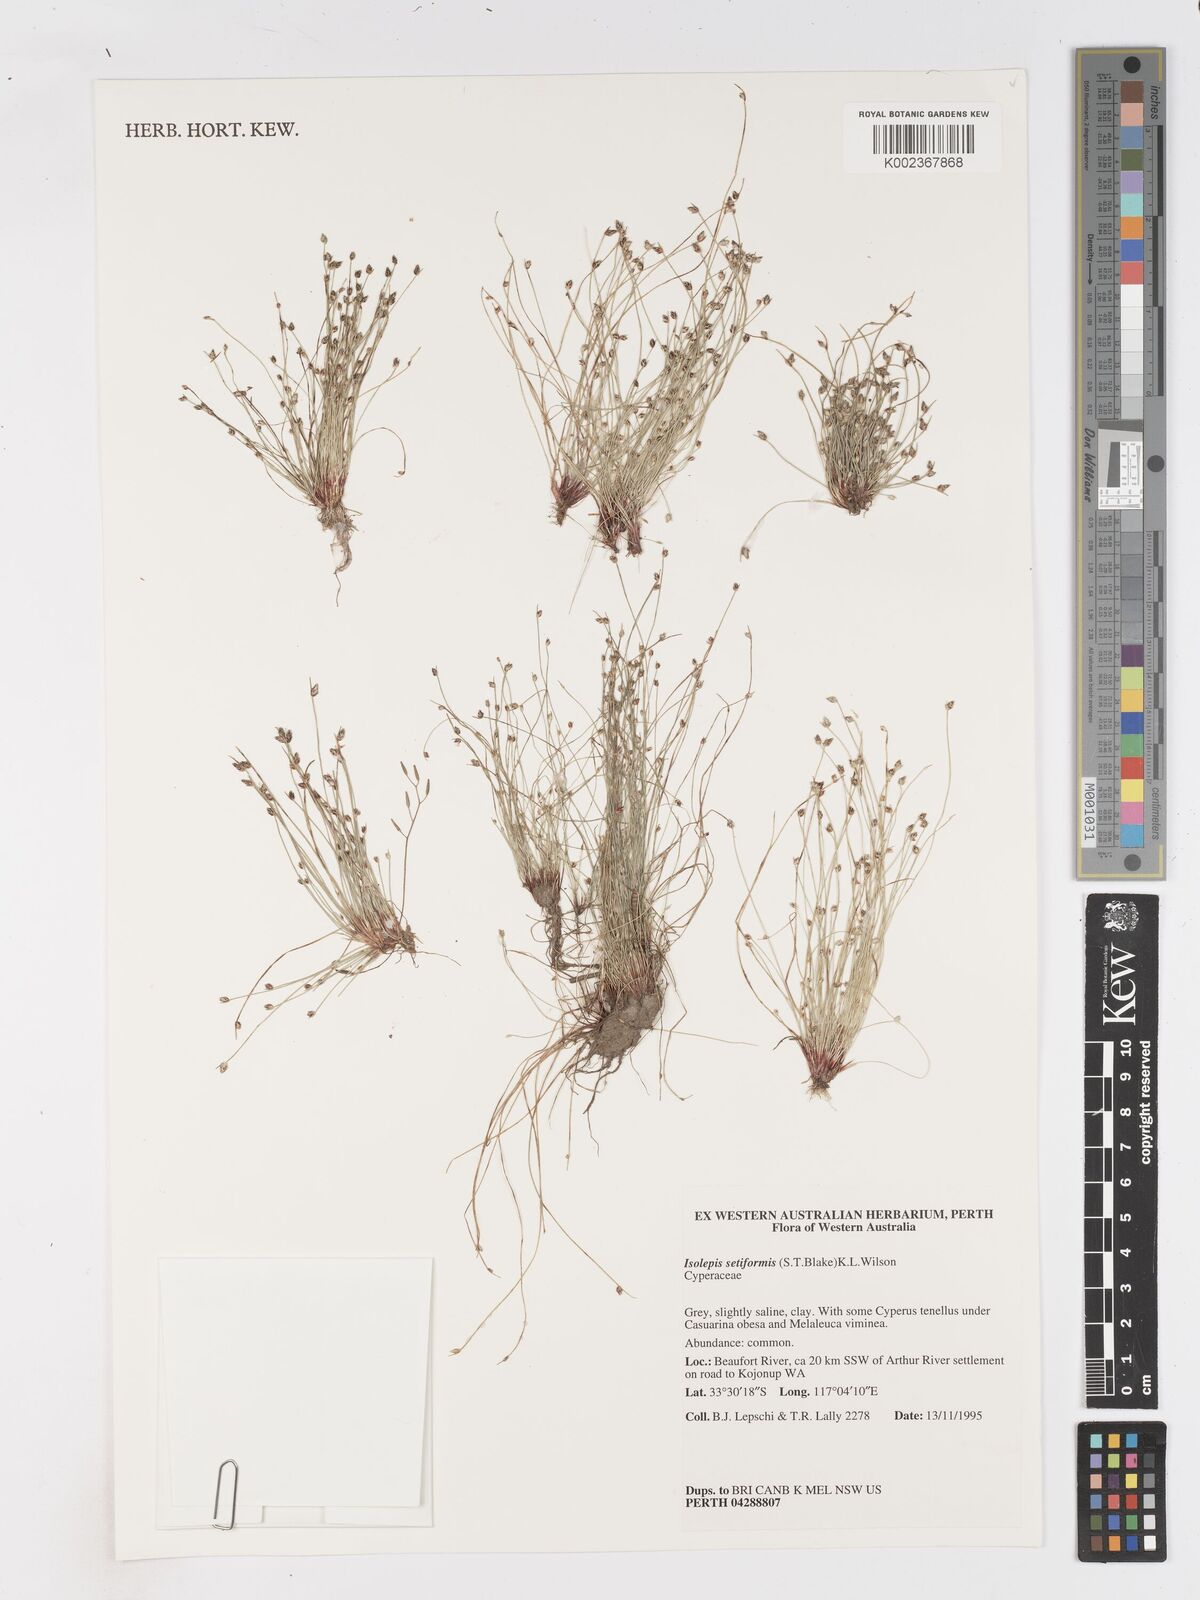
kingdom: Plantae
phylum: Tracheophyta
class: Liliopsida
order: Poales
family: Cyperaceae
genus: Isolepis
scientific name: Isolepis cernua
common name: Slender club-rush
